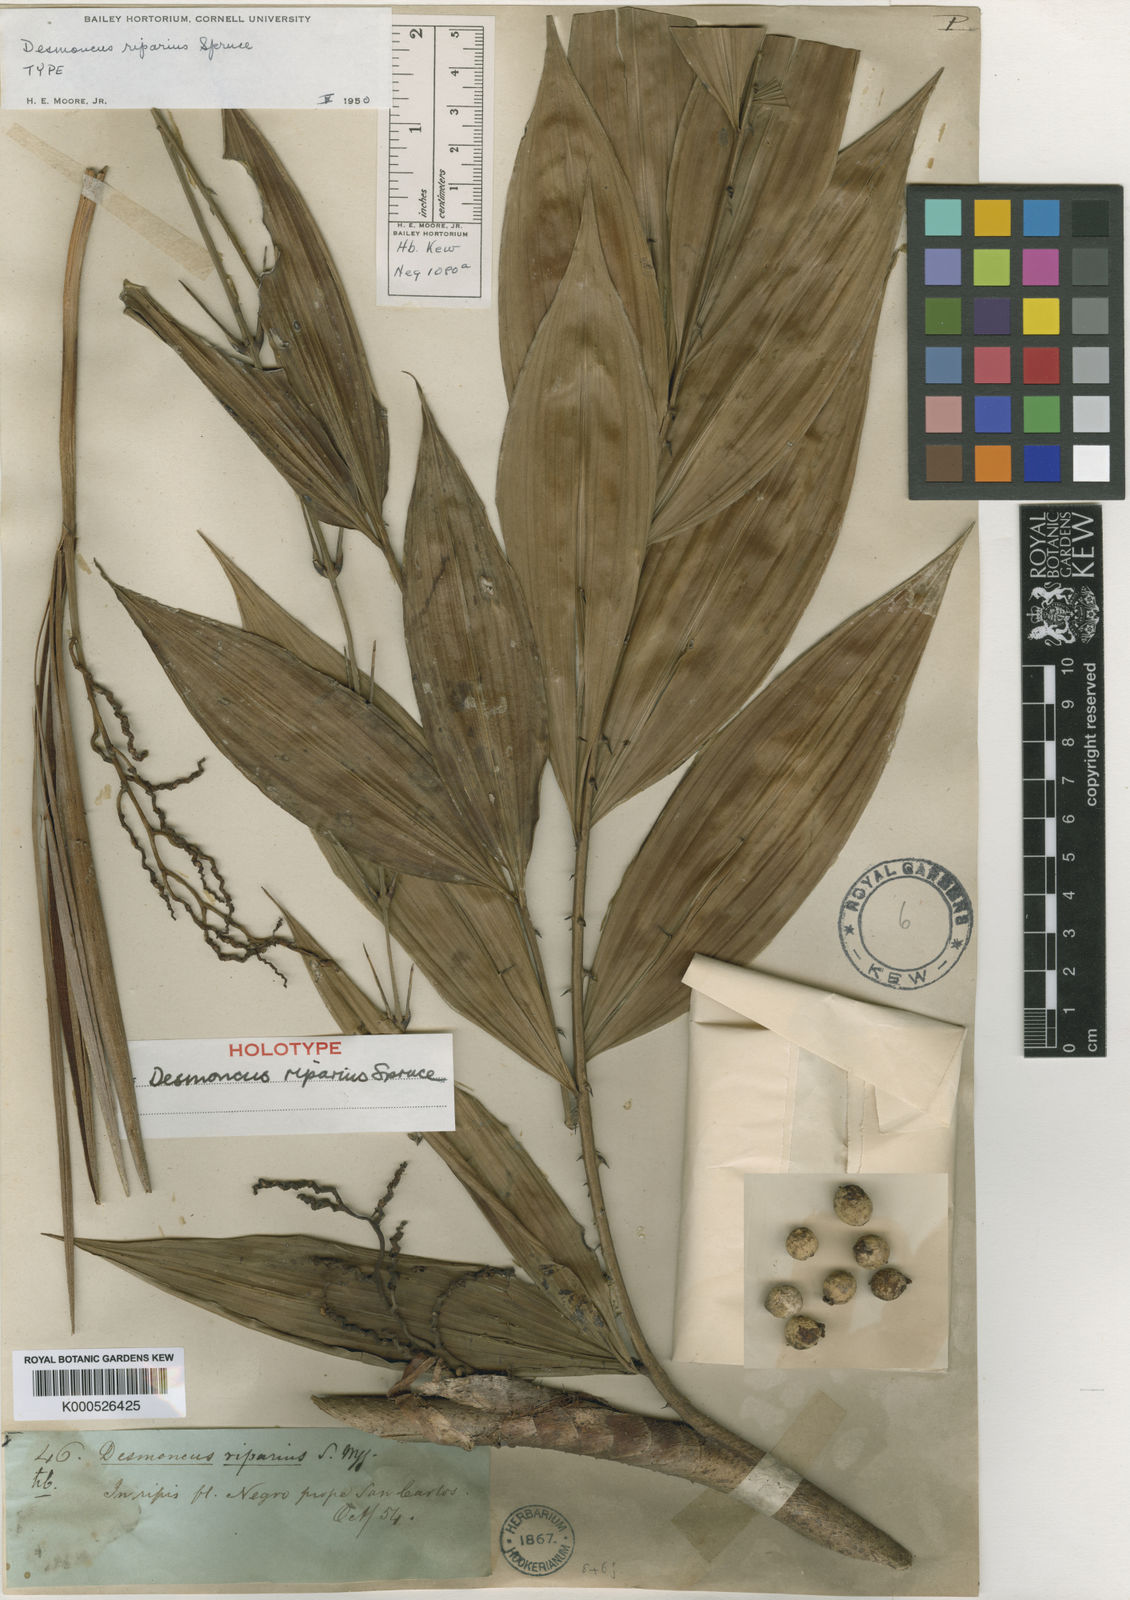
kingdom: Plantae
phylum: Tracheophyta
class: Liliopsida
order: Arecales
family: Arecaceae
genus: Desmoncus
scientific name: Desmoncus polyacanthos
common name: Suriname bramble palm
